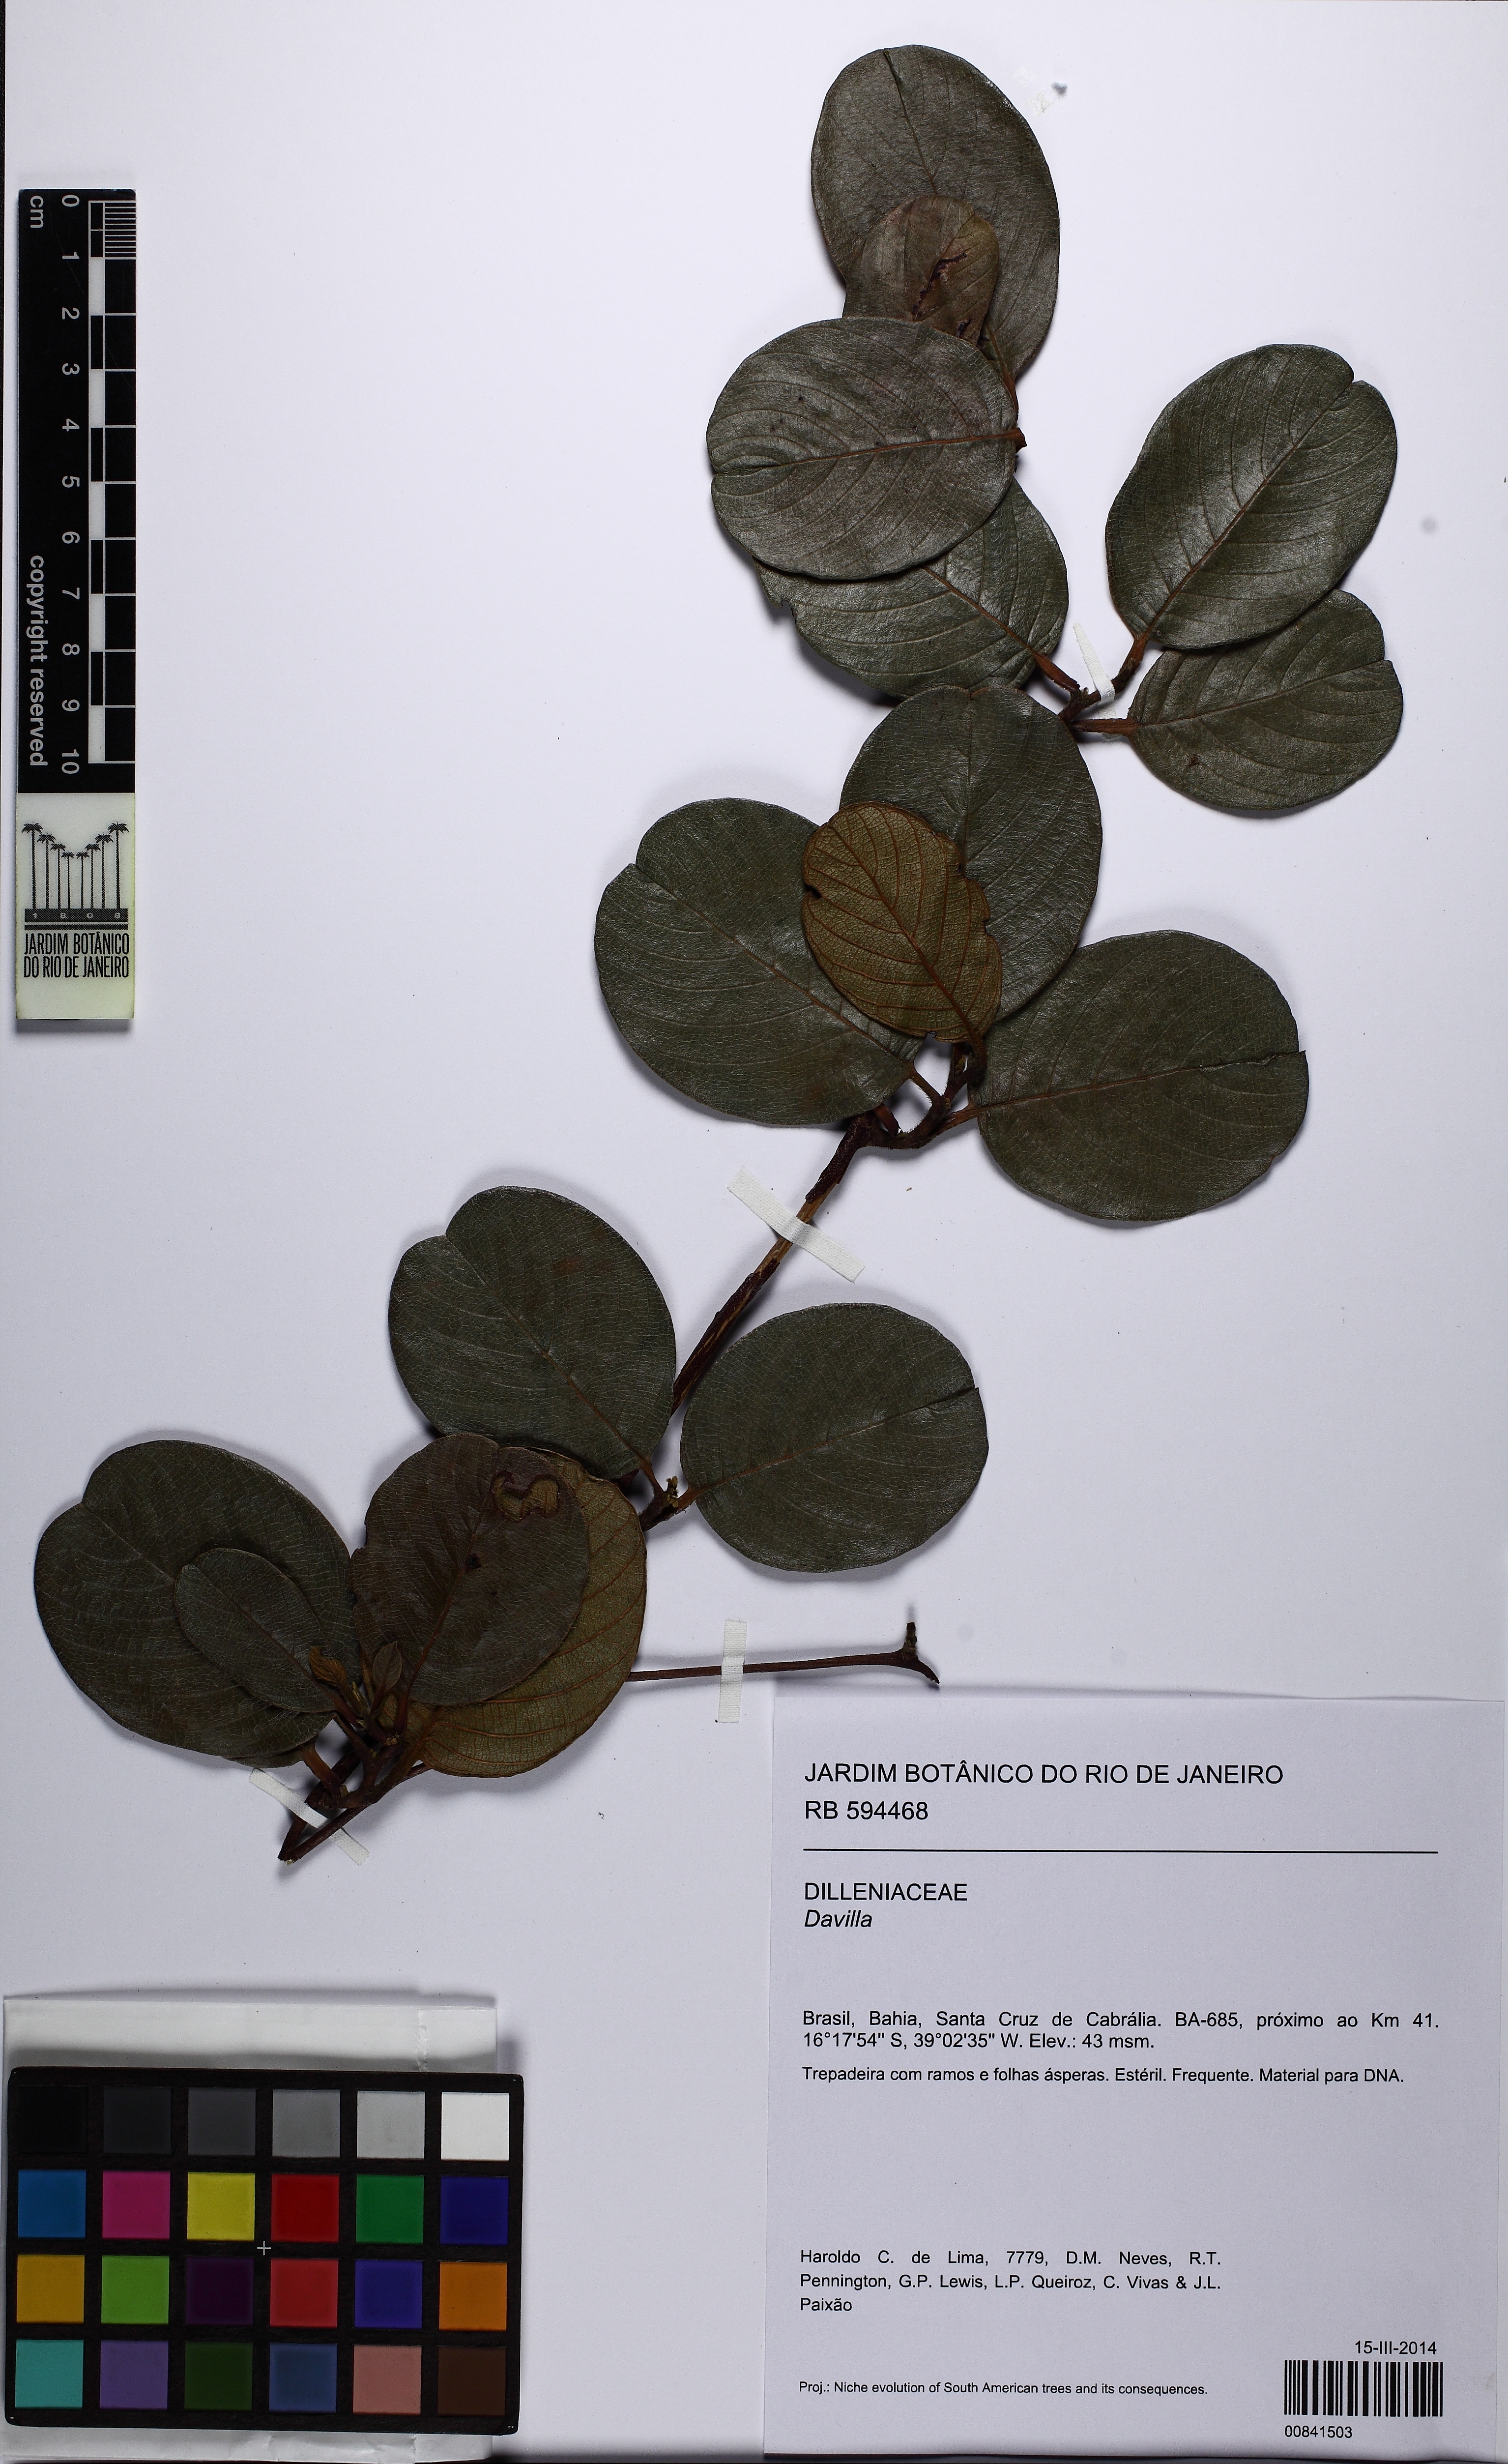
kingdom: Plantae
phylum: Tracheophyta
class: Magnoliopsida
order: Dilleniales
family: Dilleniaceae
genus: Davilla
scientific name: Davilla
